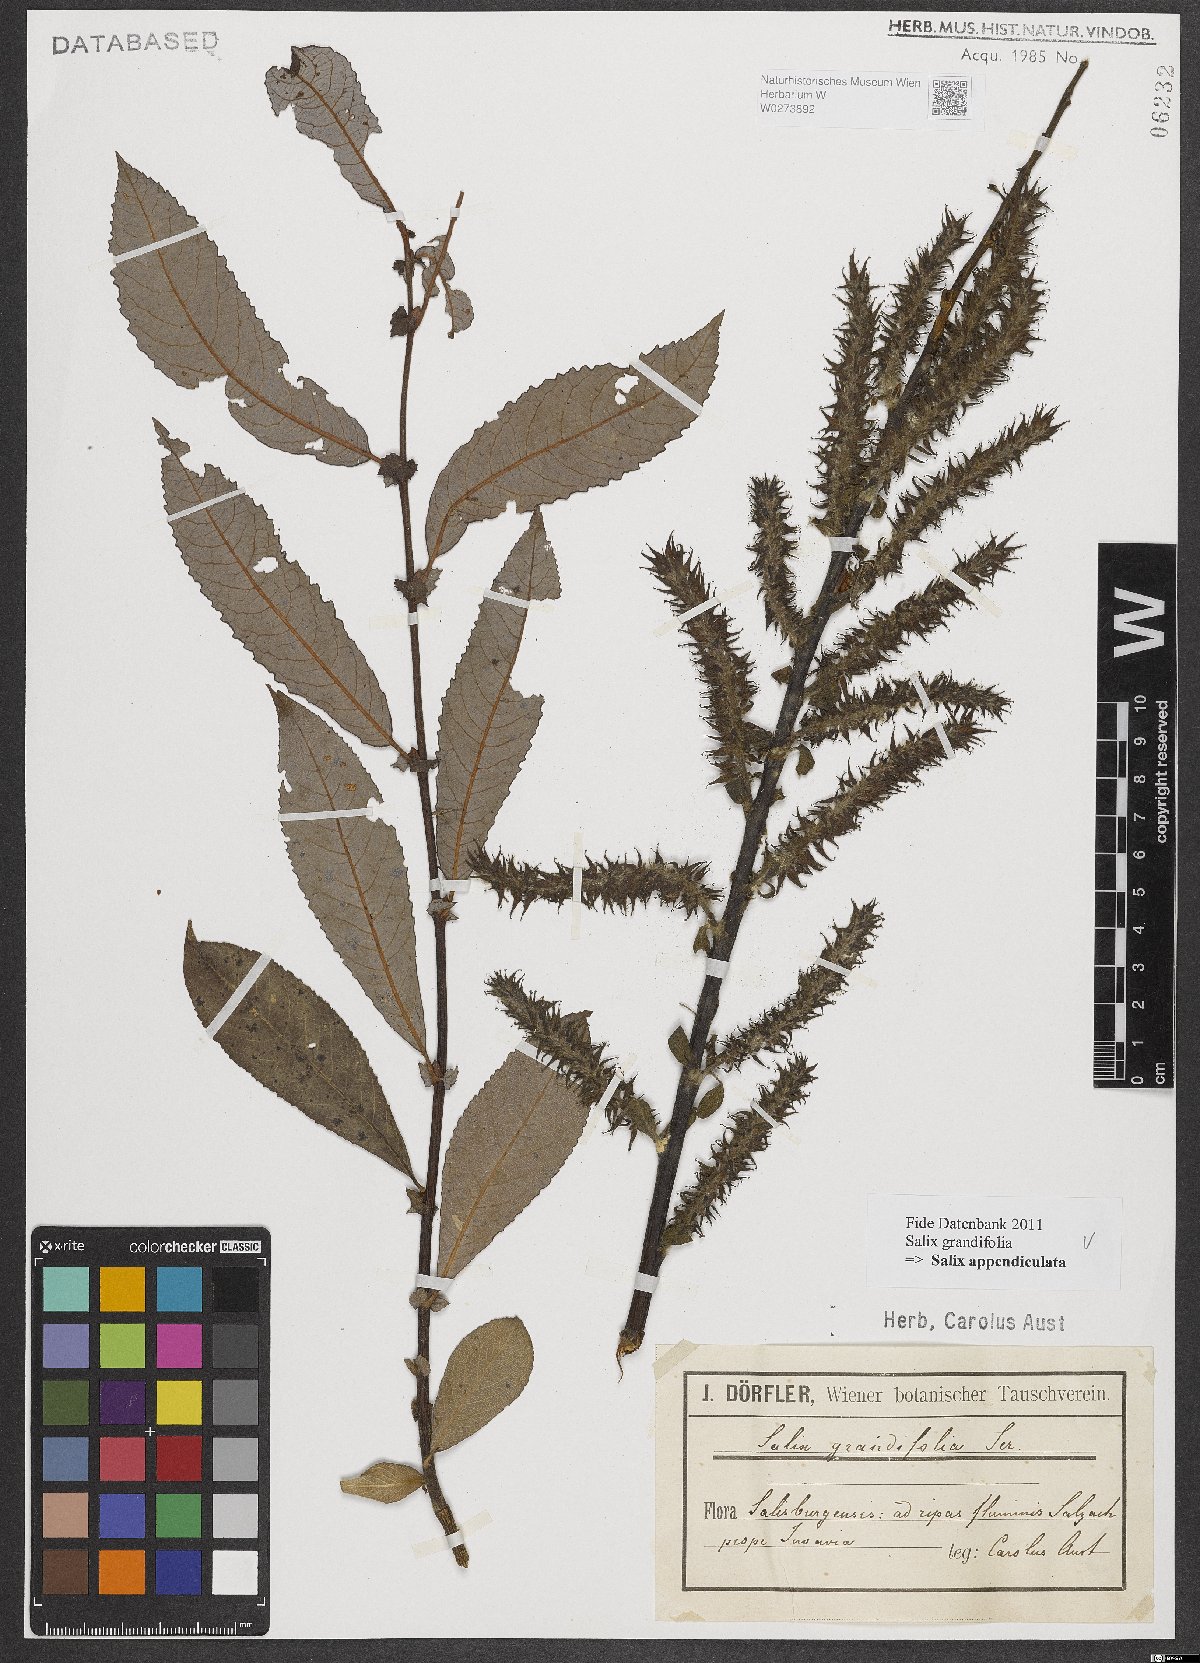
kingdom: Plantae
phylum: Tracheophyta
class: Magnoliopsida
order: Malpighiales
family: Salicaceae
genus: Salix
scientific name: Salix appendiculata
